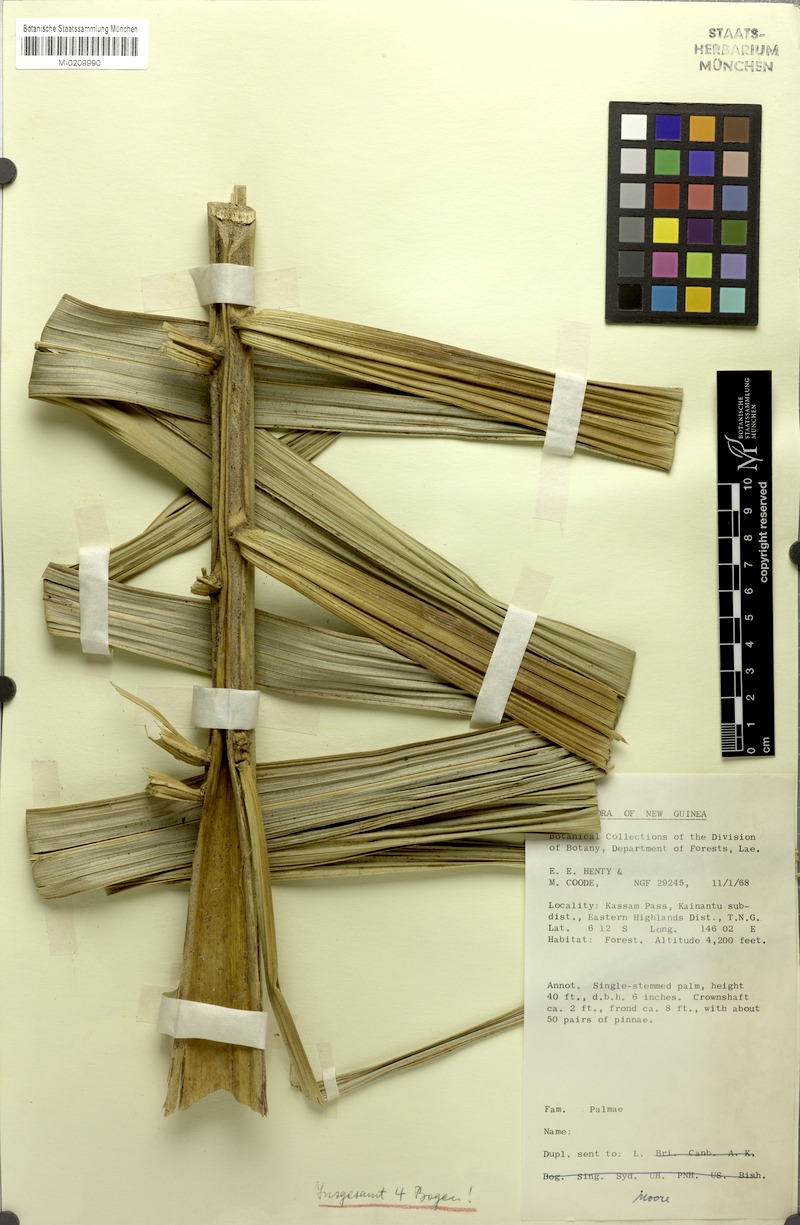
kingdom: Plantae
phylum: Tracheophyta
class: Liliopsida
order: Arecales
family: Arecaceae
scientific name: Arecaceae
